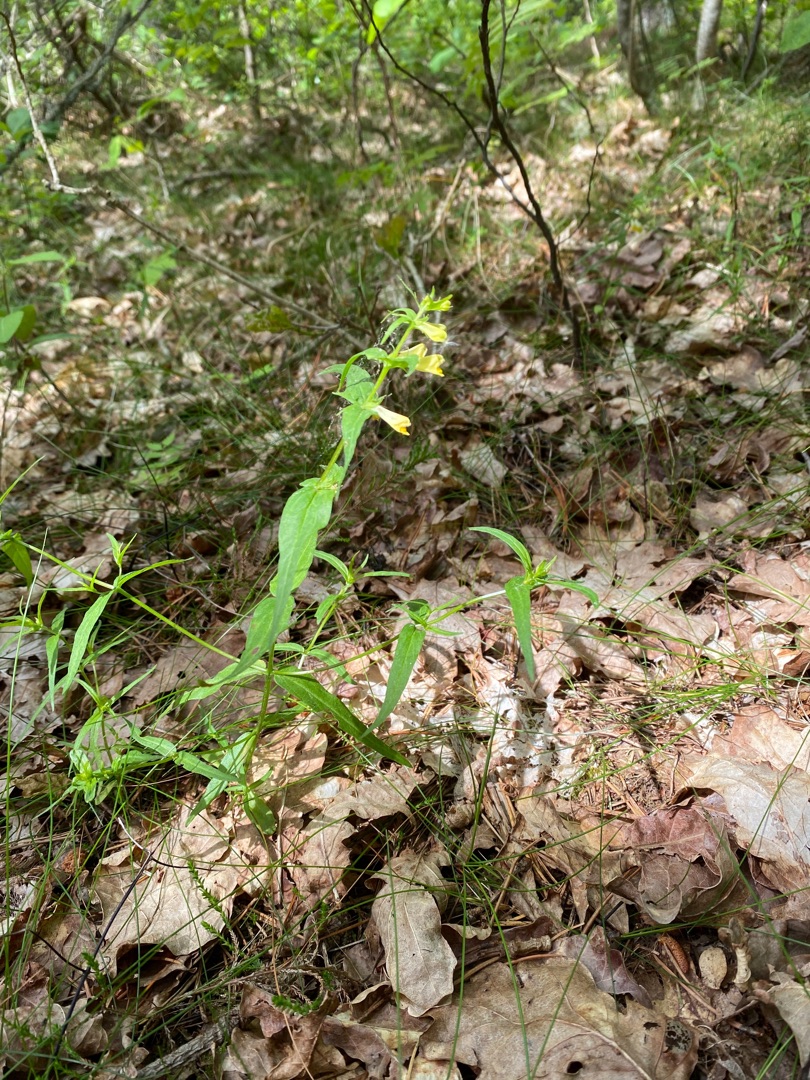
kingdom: Plantae
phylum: Tracheophyta
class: Magnoliopsida
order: Lamiales
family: Orobanchaceae
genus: Melampyrum
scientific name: Melampyrum pratense
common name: Almindelig kohvede
